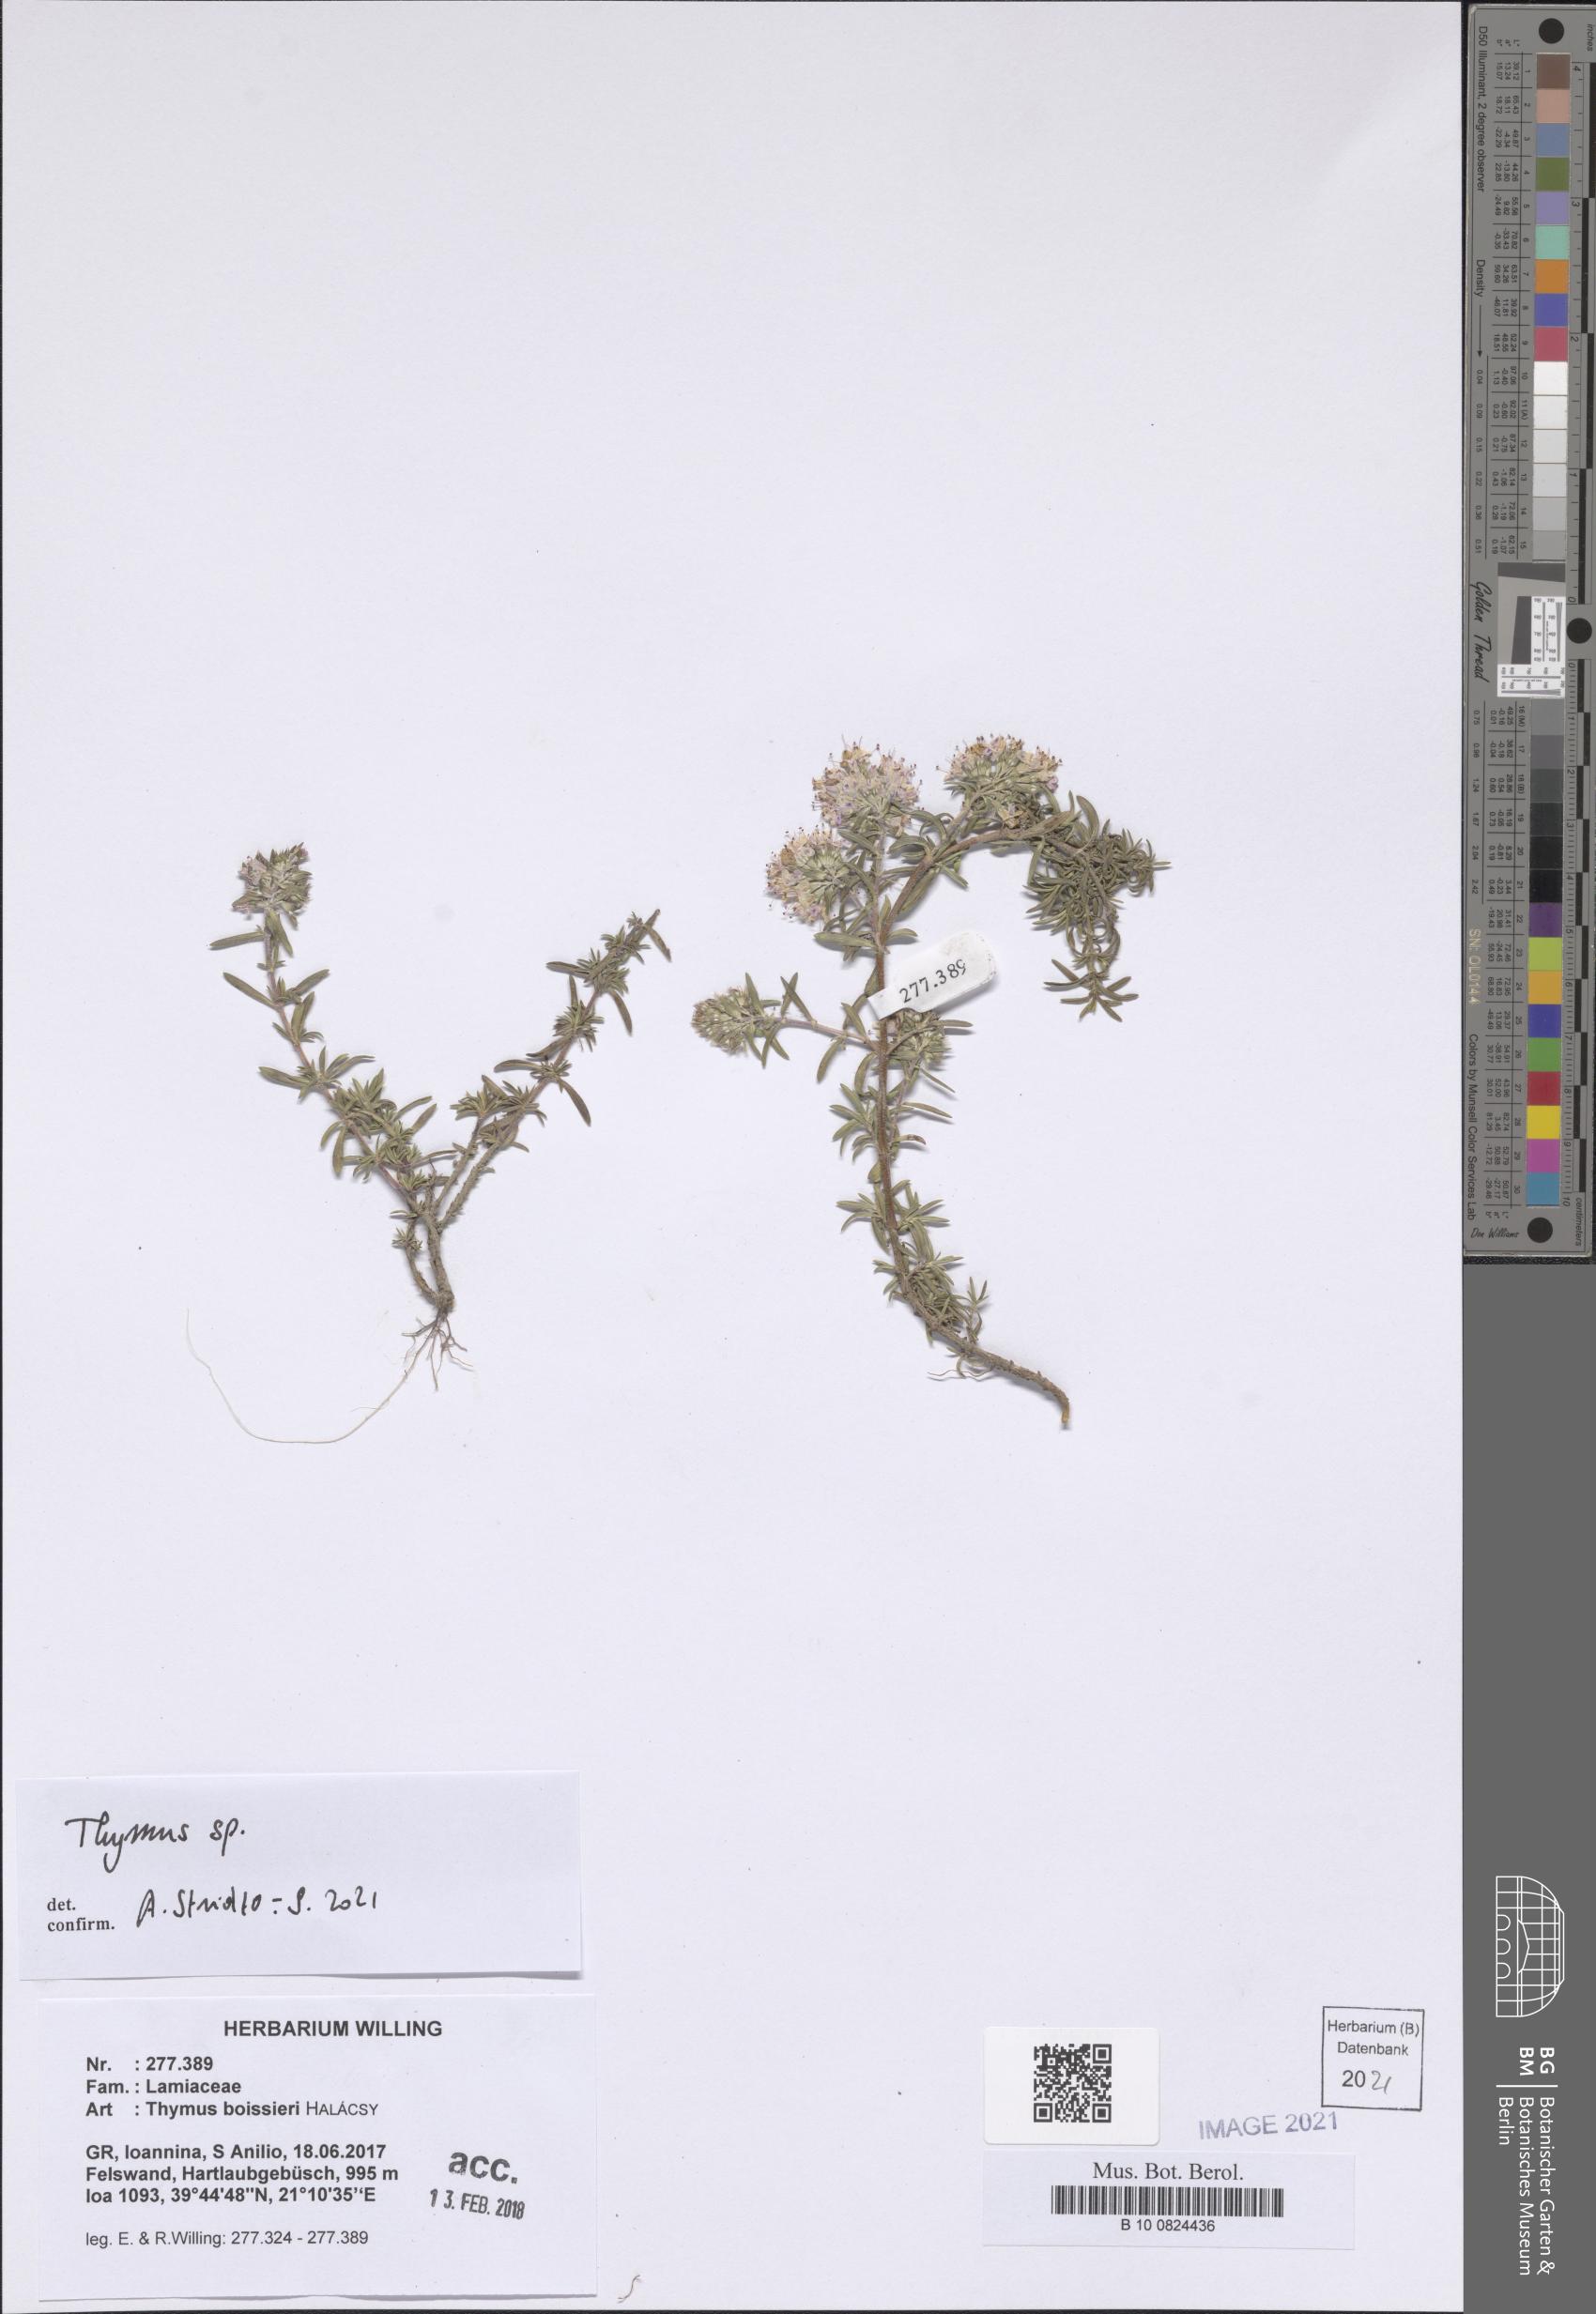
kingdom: Plantae
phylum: Tracheophyta
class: Magnoliopsida
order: Lamiales
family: Lamiaceae
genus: Thymus
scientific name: Thymus
